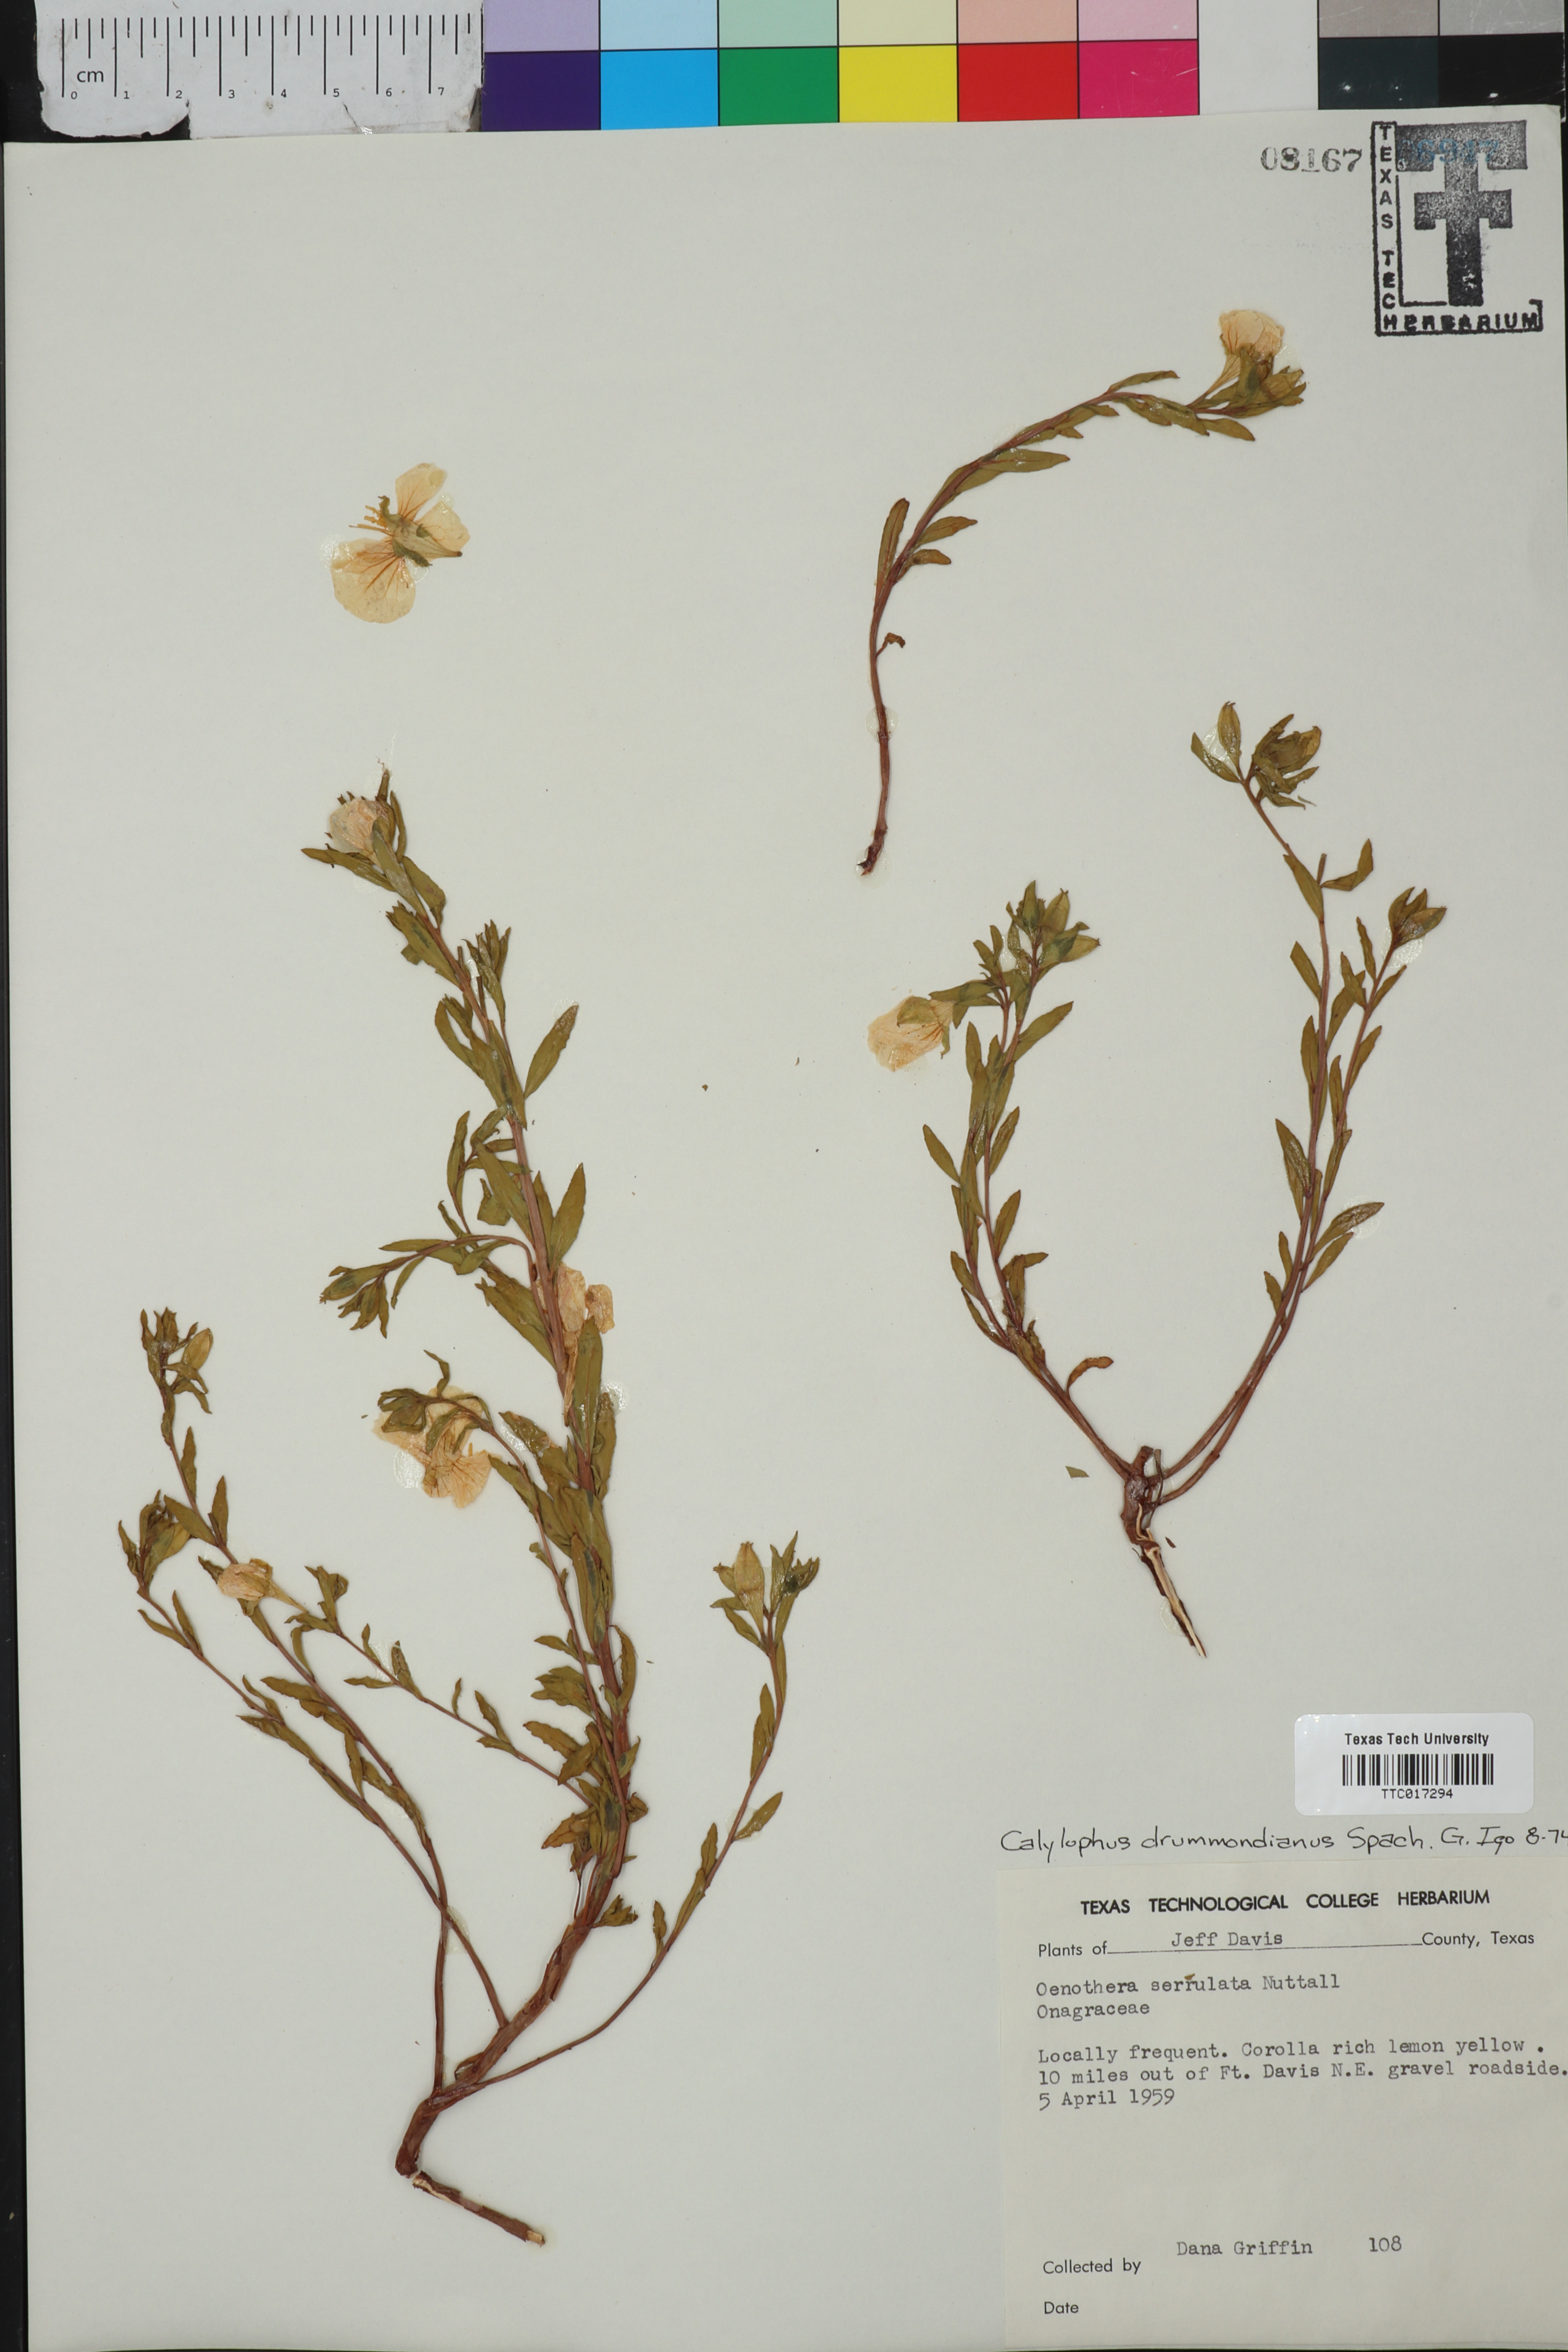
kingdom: Plantae
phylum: Tracheophyta
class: Magnoliopsida
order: Myrtales
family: Onagraceae
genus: Oenothera
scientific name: Oenothera serrulata
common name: Half-shrub calylophus
